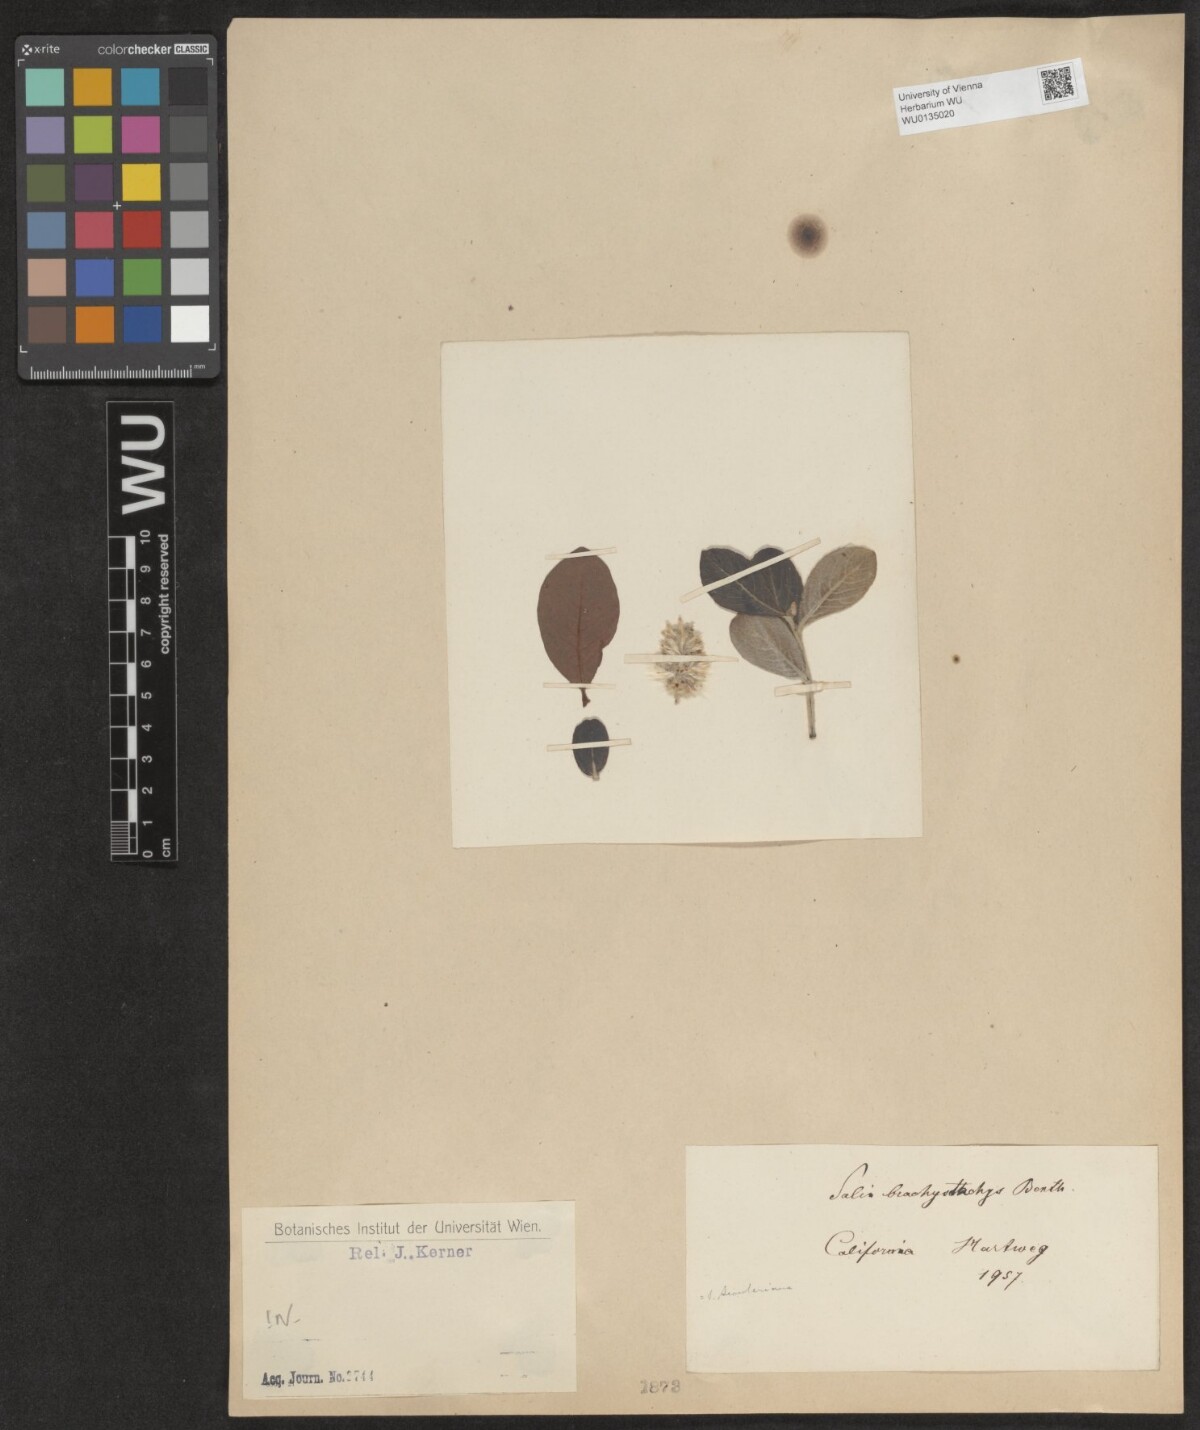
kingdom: Plantae
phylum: Tracheophyta
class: Magnoliopsida
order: Malpighiales
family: Salicaceae
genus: Salix
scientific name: Salix scouleriana
